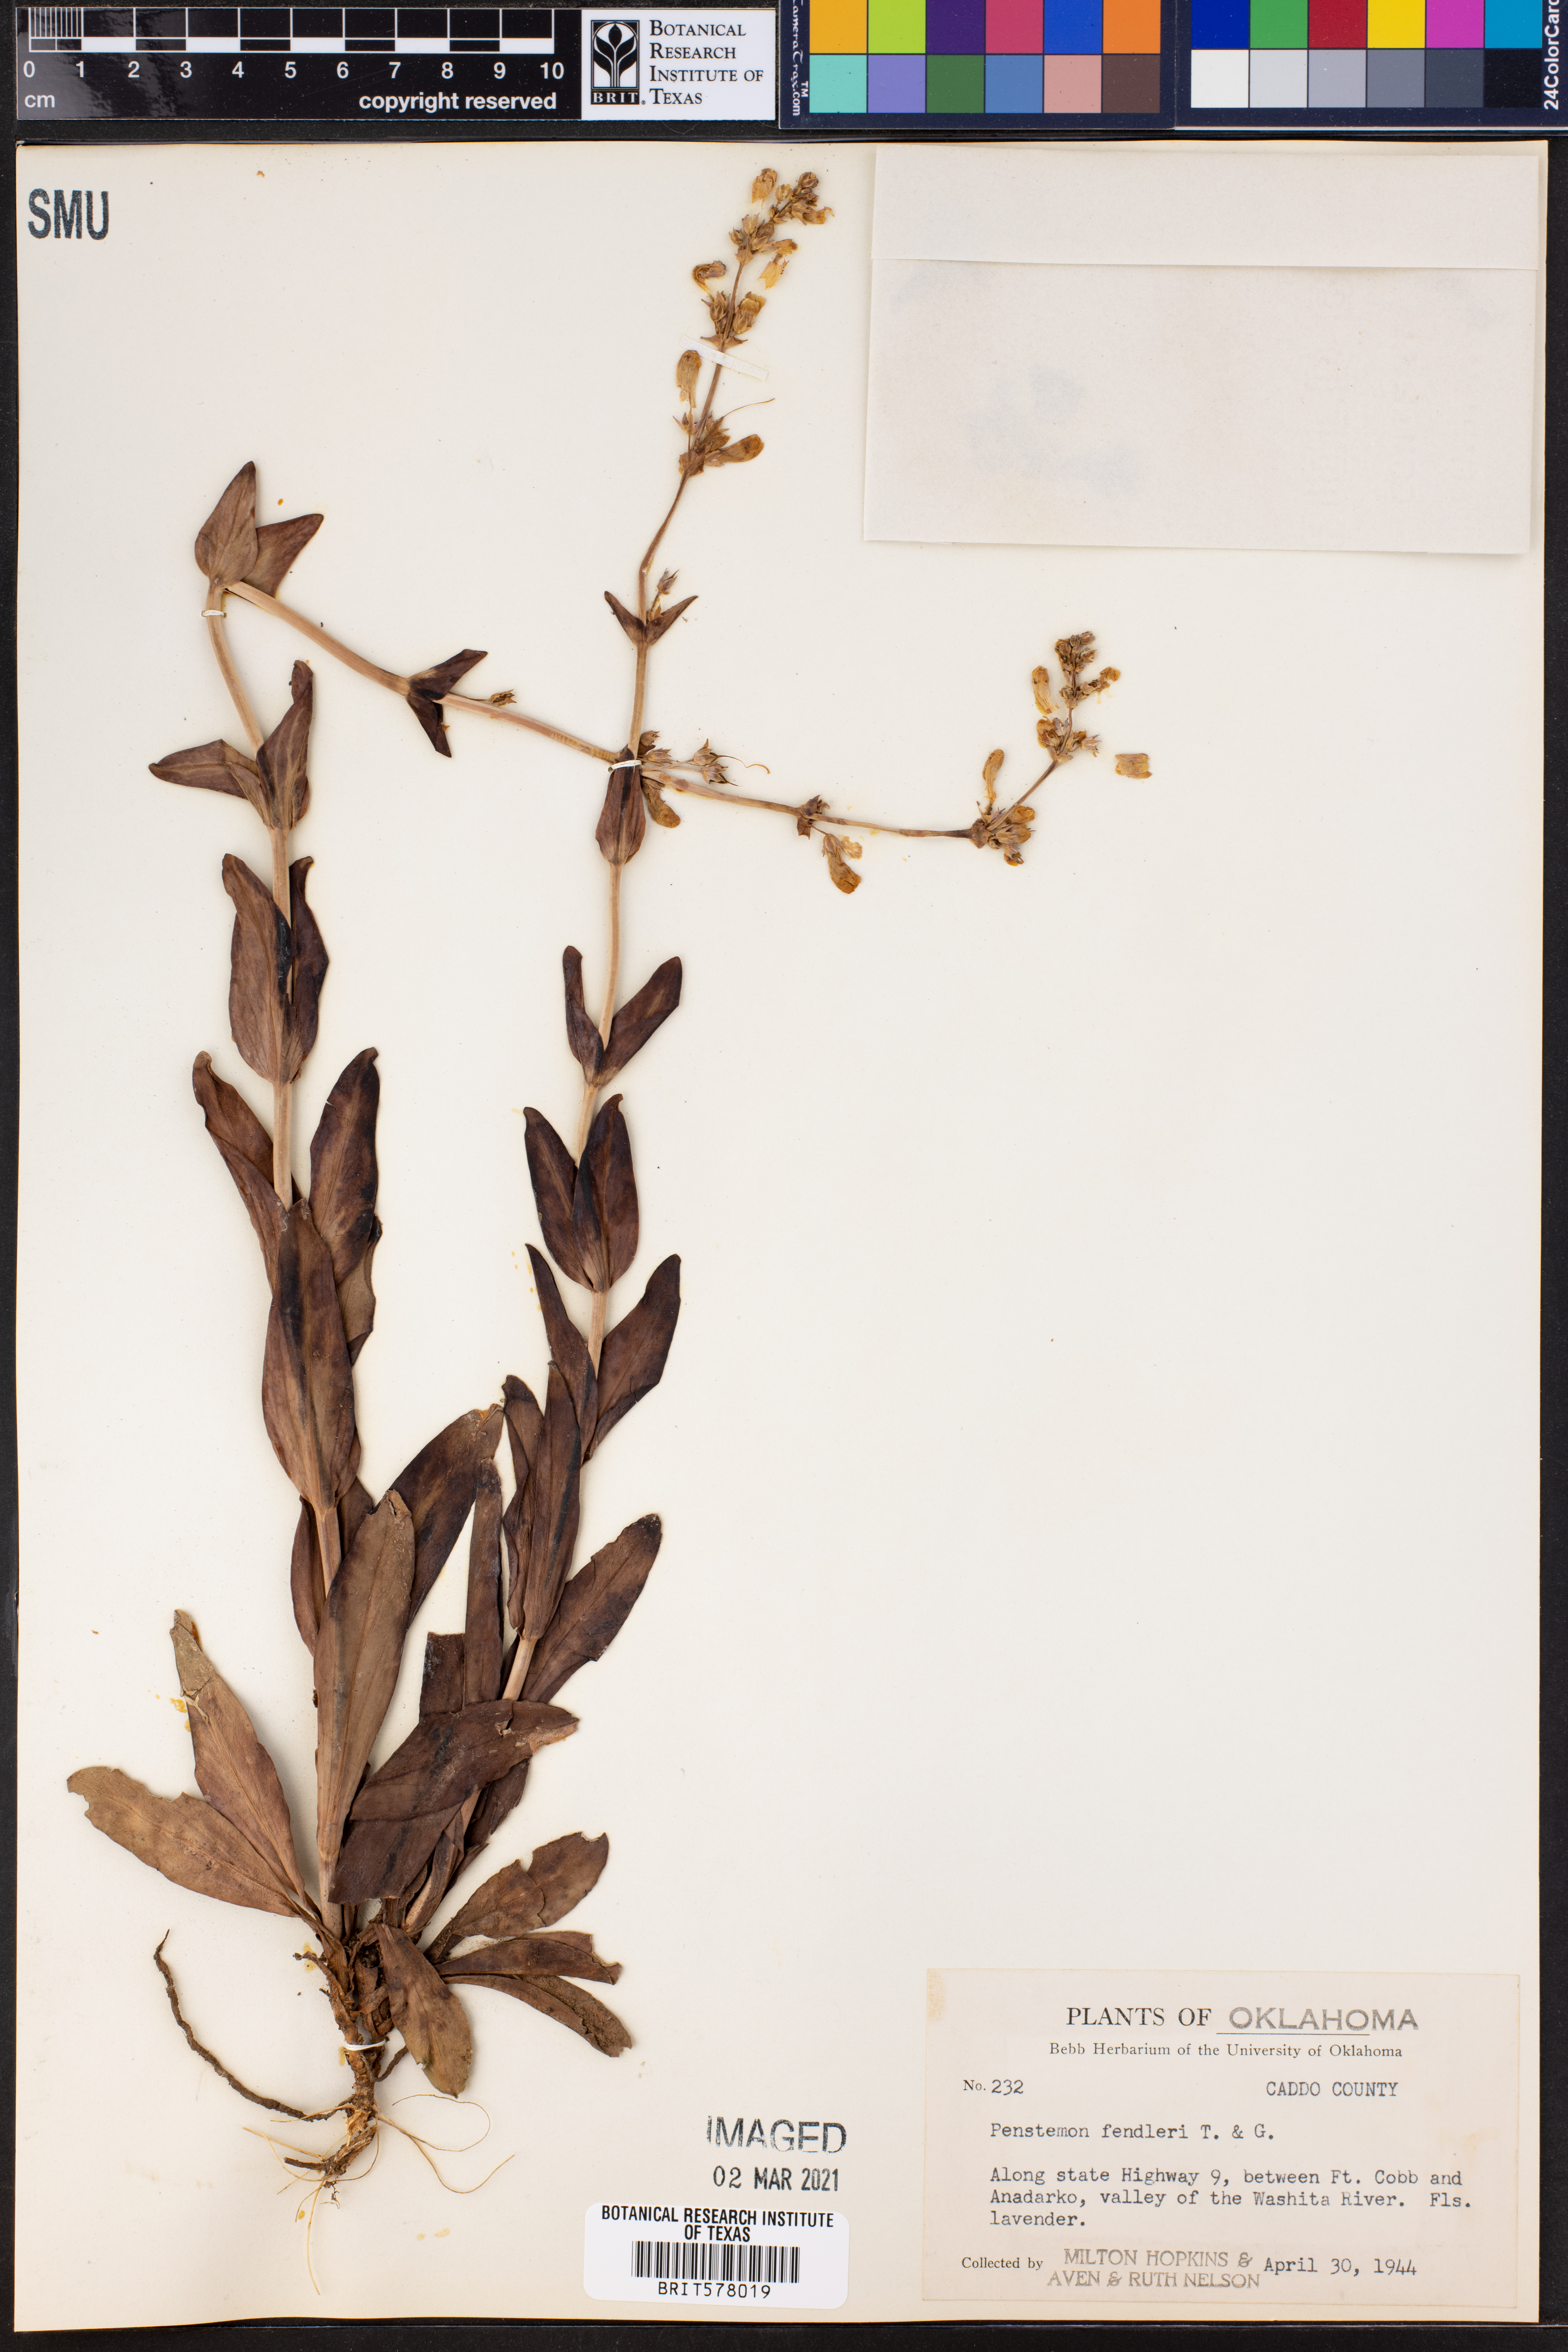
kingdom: Plantae
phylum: Tracheophyta
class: Magnoliopsida
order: Lamiales
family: Plantaginaceae
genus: Penstemon
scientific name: Penstemon fendleri
